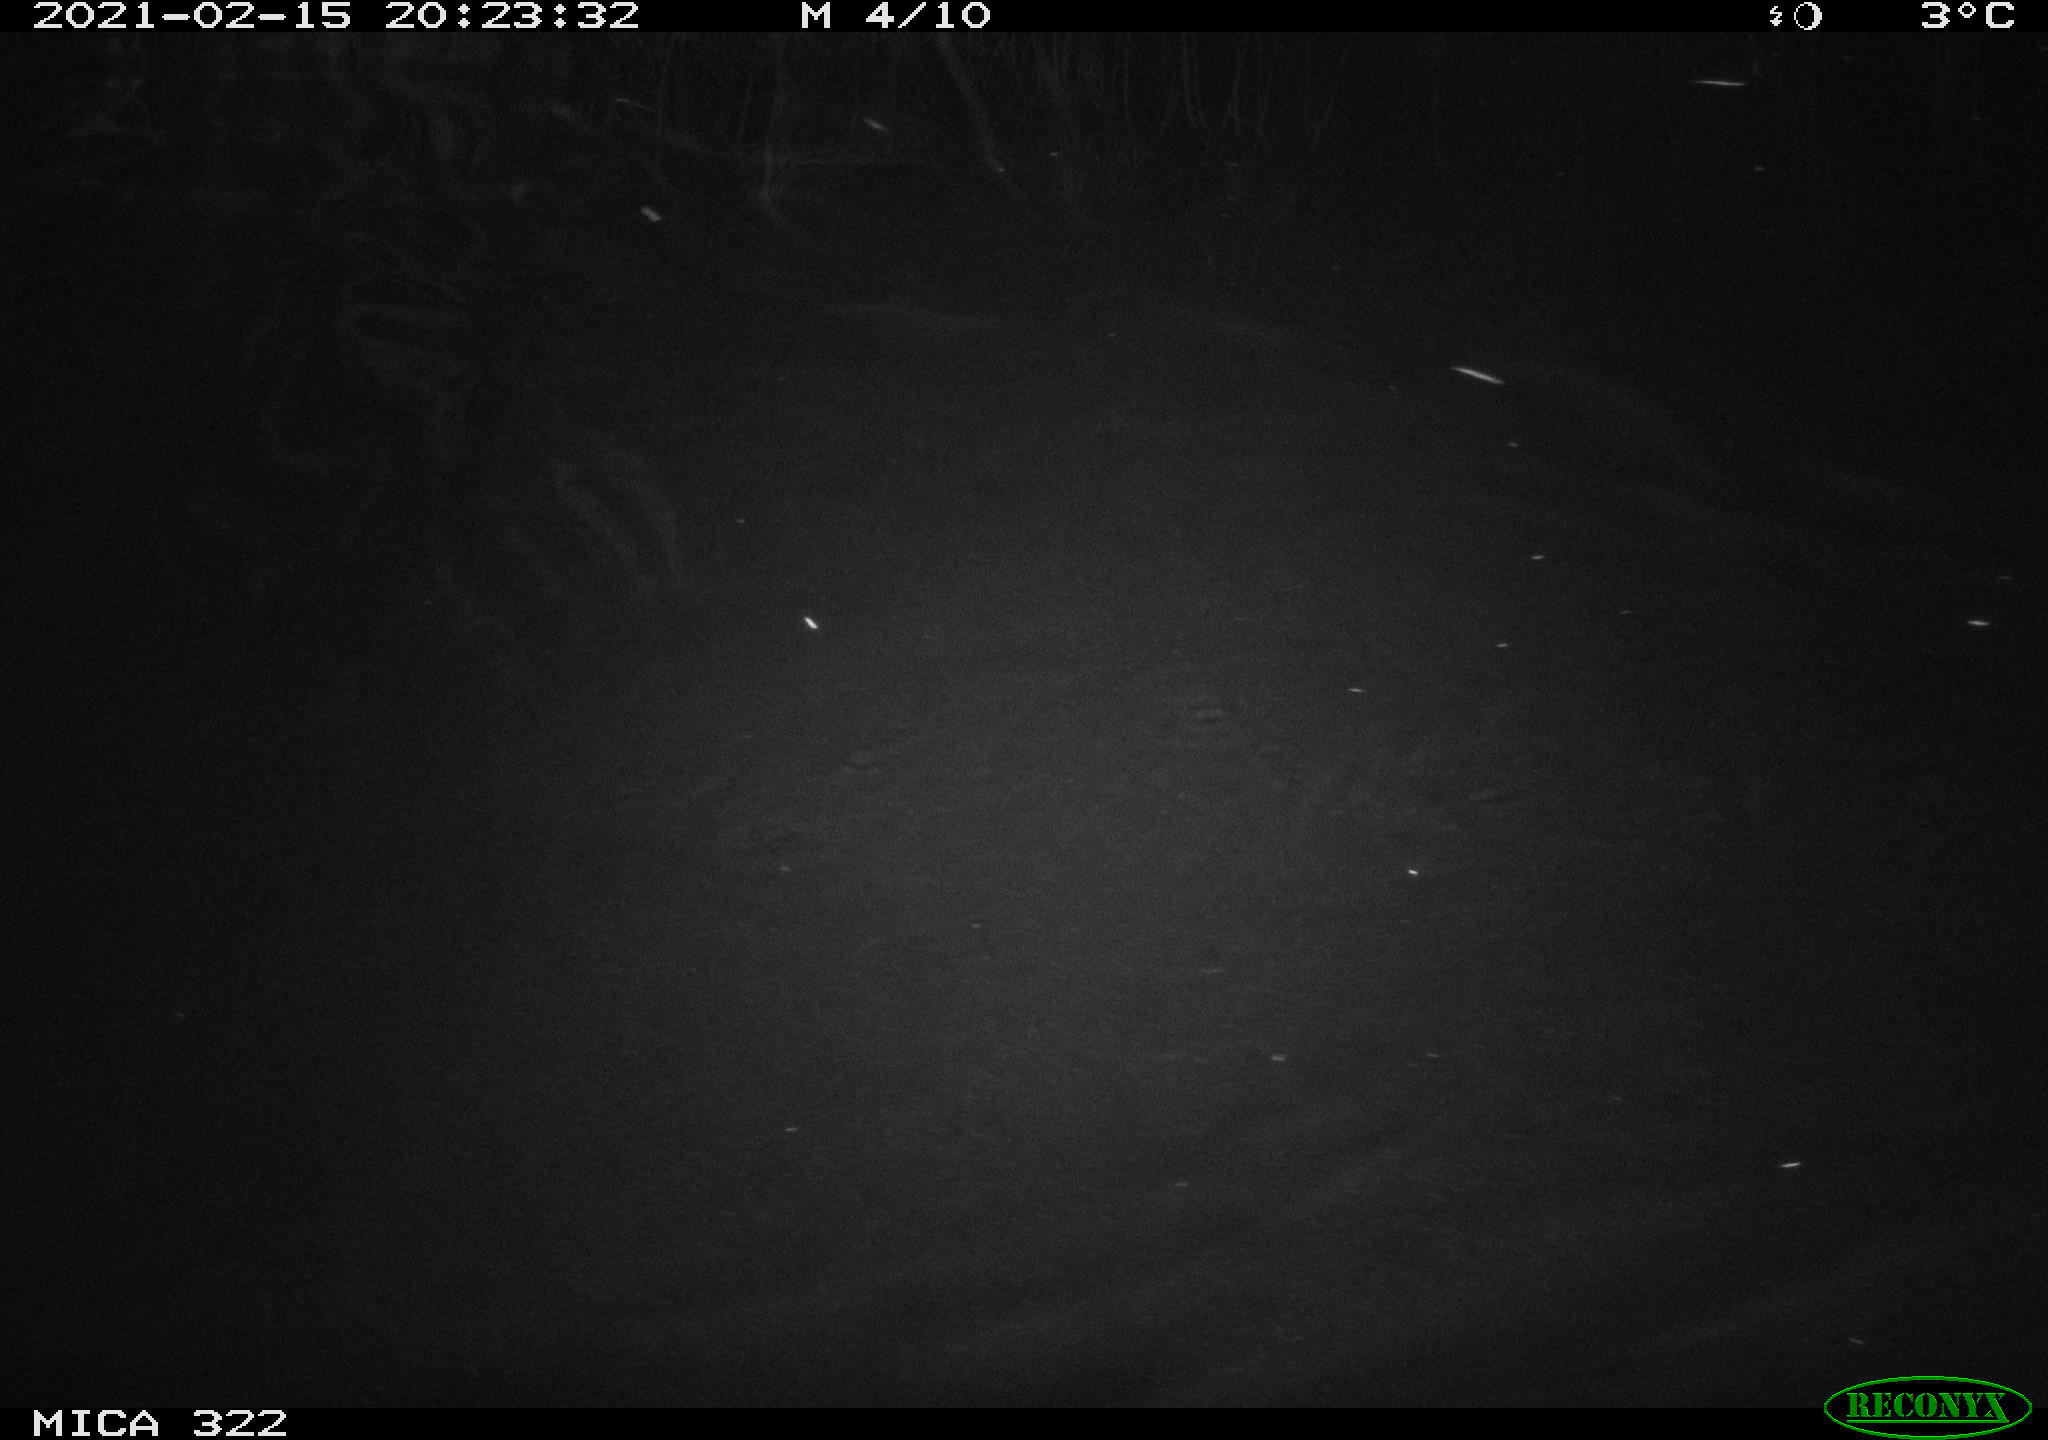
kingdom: Animalia
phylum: Chordata
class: Aves
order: Anseriformes
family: Anatidae
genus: Anas
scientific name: Anas platyrhynchos
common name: Mallard
